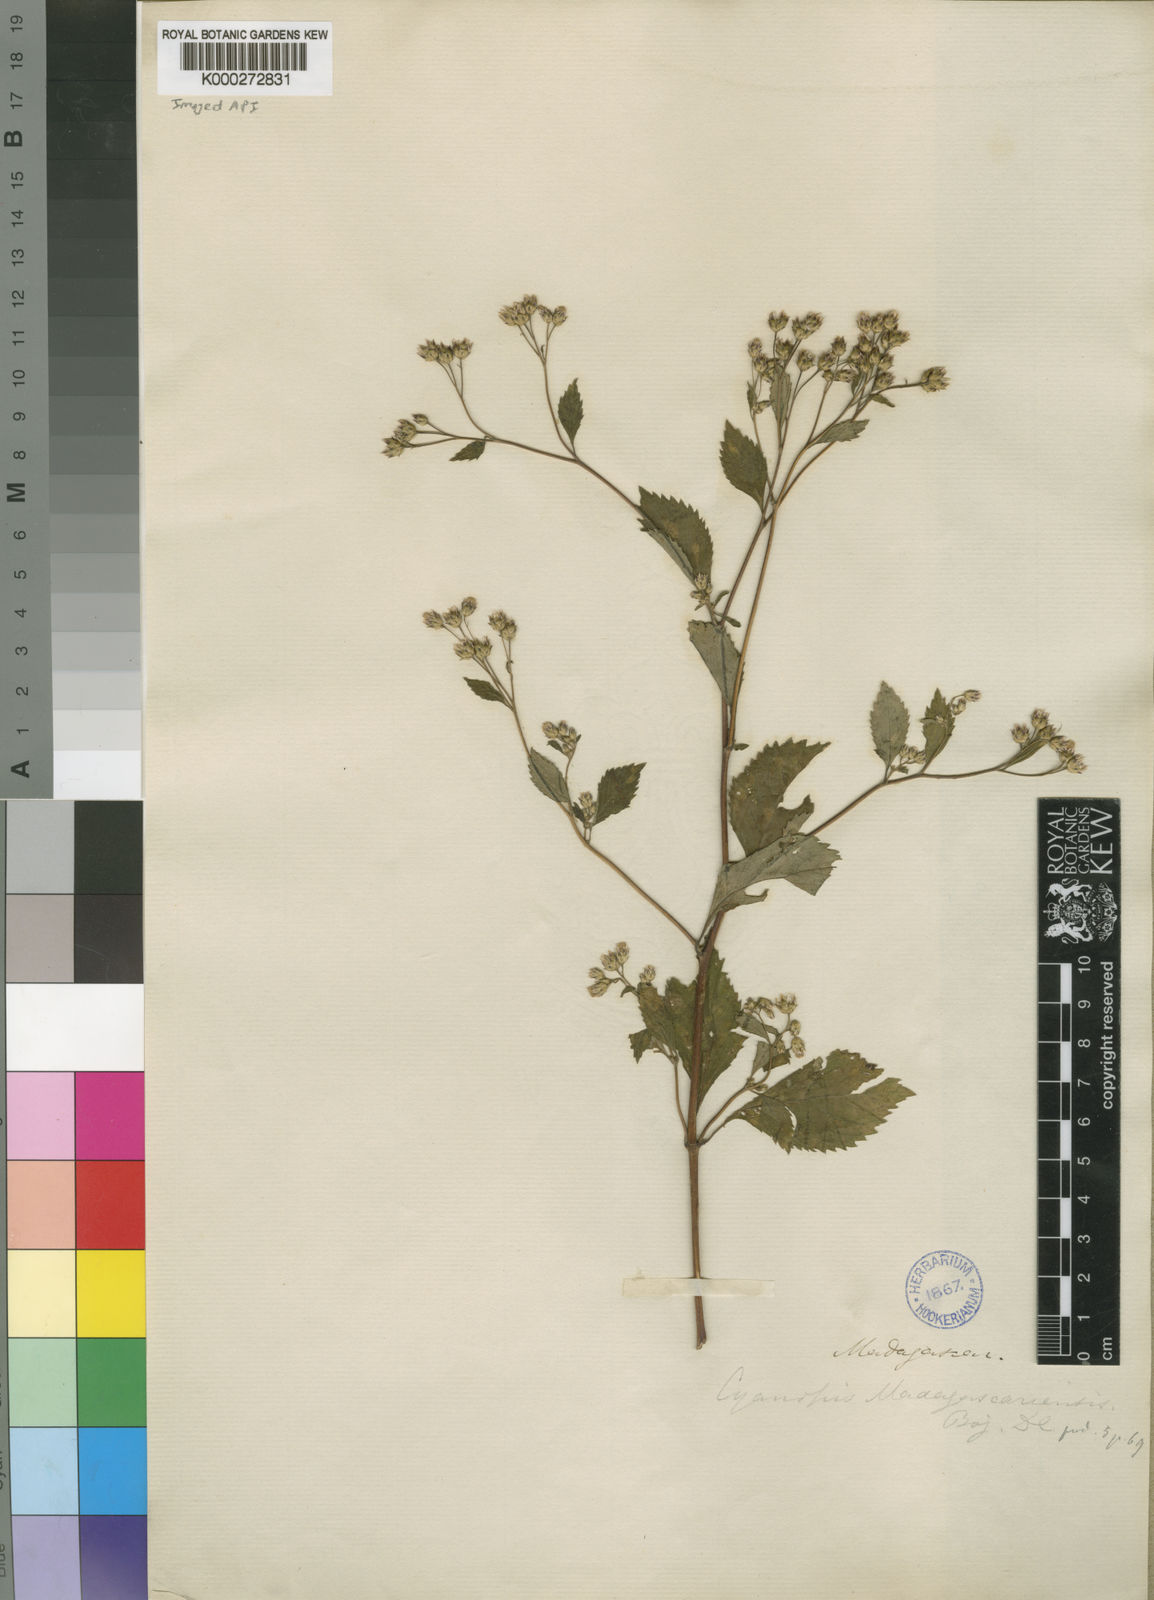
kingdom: Plantae
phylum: Tracheophyta
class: Magnoliopsida
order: Asterales
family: Asteraceae
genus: Cyanthillium
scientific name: Cyanthillium patulum
